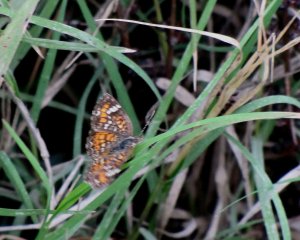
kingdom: Animalia
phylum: Arthropoda
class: Insecta
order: Lepidoptera
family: Nymphalidae
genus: Phyciodes
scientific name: Phyciodes phaon
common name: Phaon Crescent
